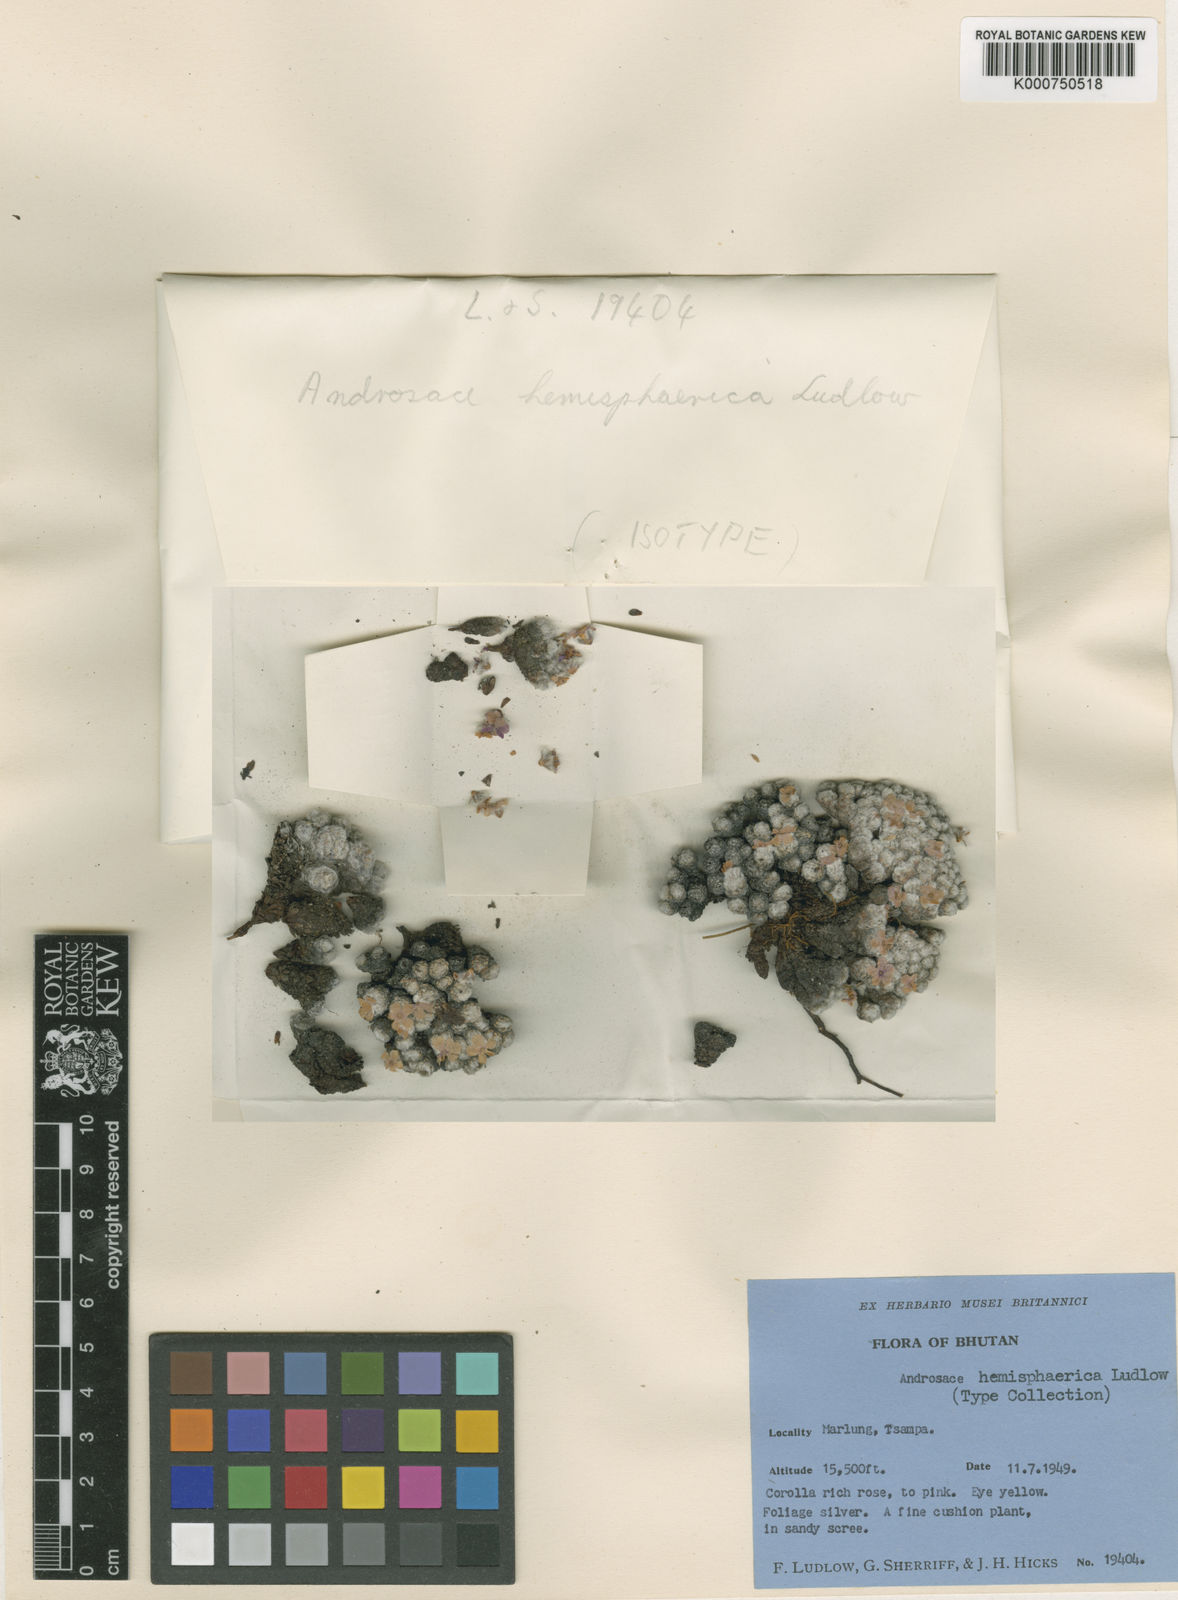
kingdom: Plantae
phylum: Tracheophyta
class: Magnoliopsida
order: Ericales
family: Primulaceae
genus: Androsace
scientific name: Androsace hemisphaerica
